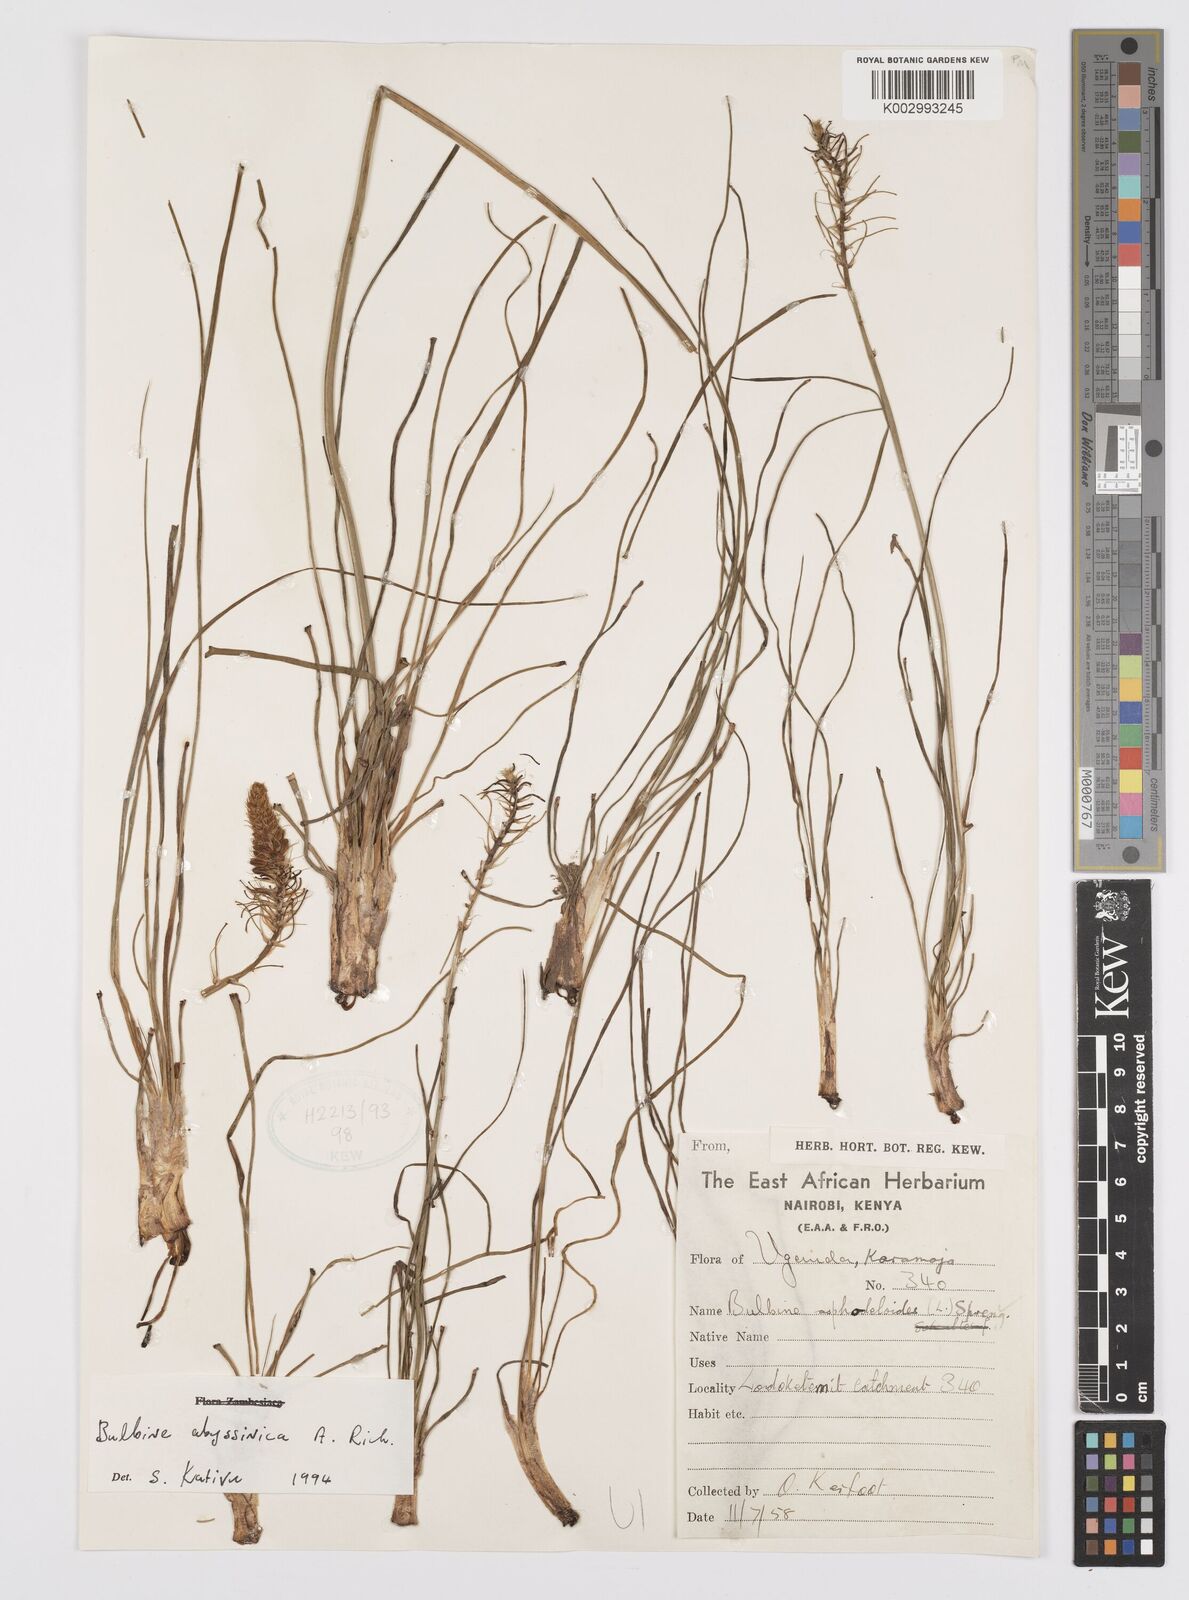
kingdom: Plantae
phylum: Tracheophyta
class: Liliopsida
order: Asparagales
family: Asphodelaceae
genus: Bulbine
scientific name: Bulbine abyssinica
